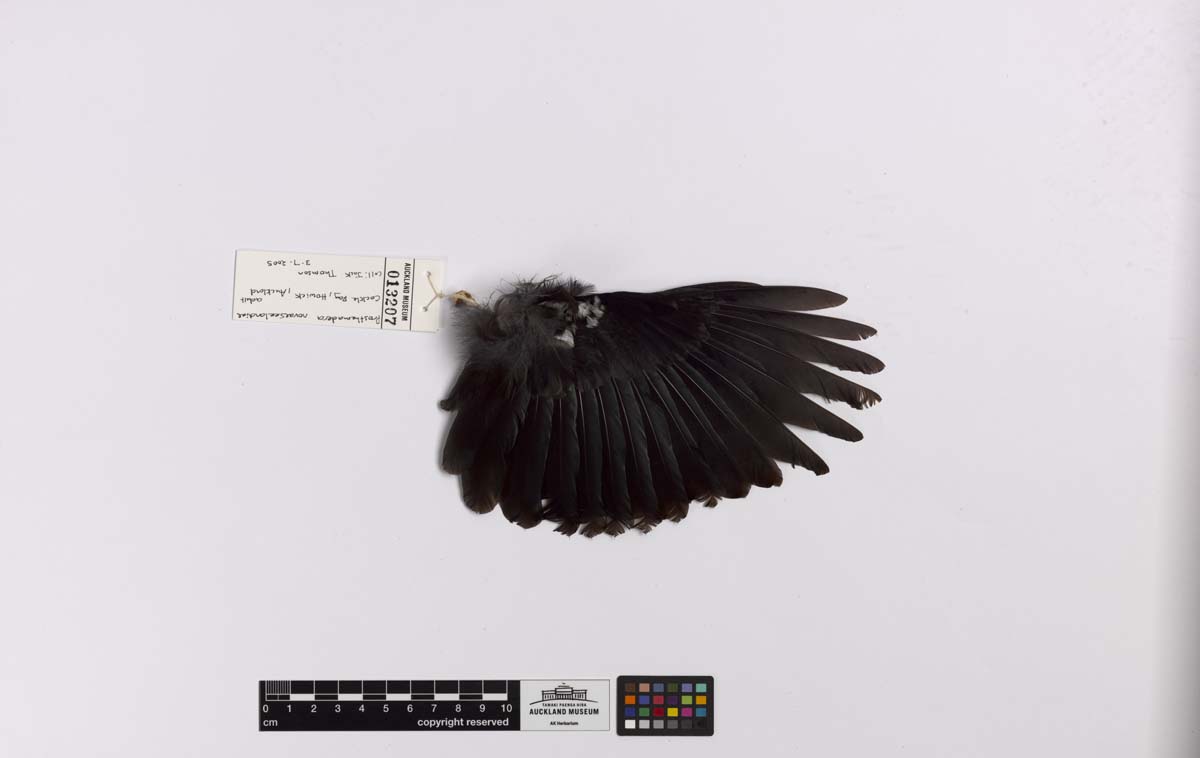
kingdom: Animalia
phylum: Chordata
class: Aves
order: Passeriformes
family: Meliphagidae
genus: Prosthemadera
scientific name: Prosthemadera novaeseelandiae
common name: Tui
